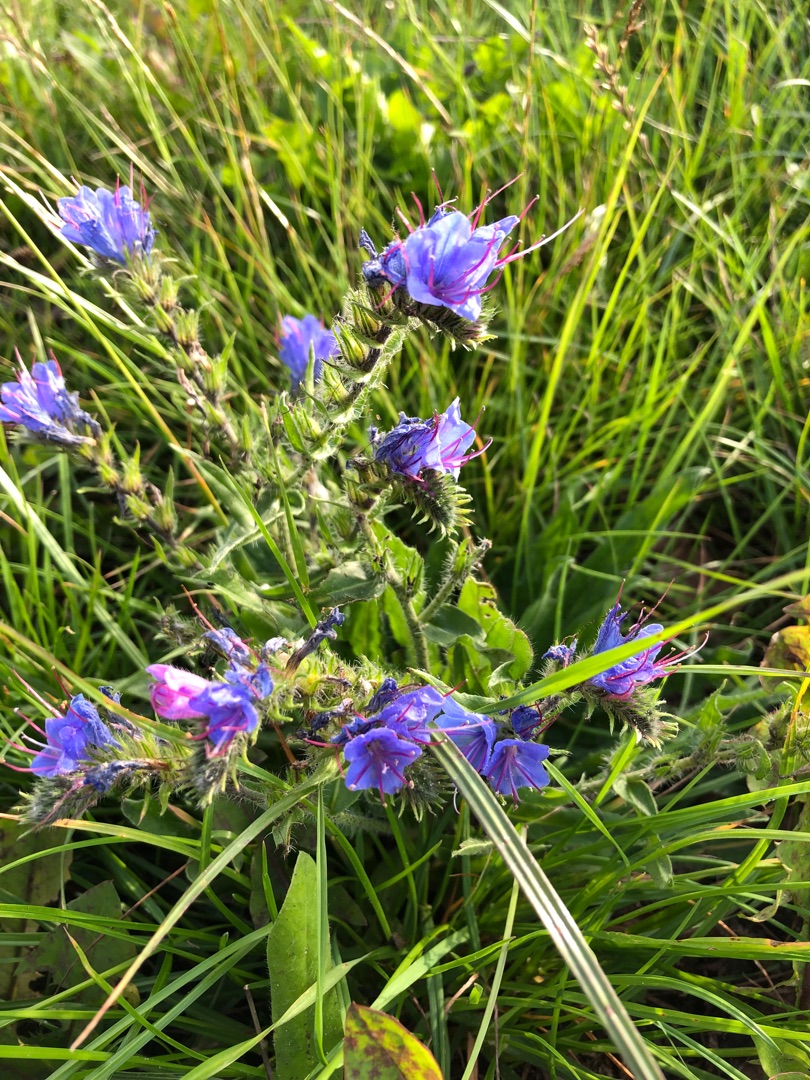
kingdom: Plantae
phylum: Tracheophyta
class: Magnoliopsida
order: Boraginales
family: Boraginaceae
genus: Echium
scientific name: Echium vulgare
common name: Slangehoved
